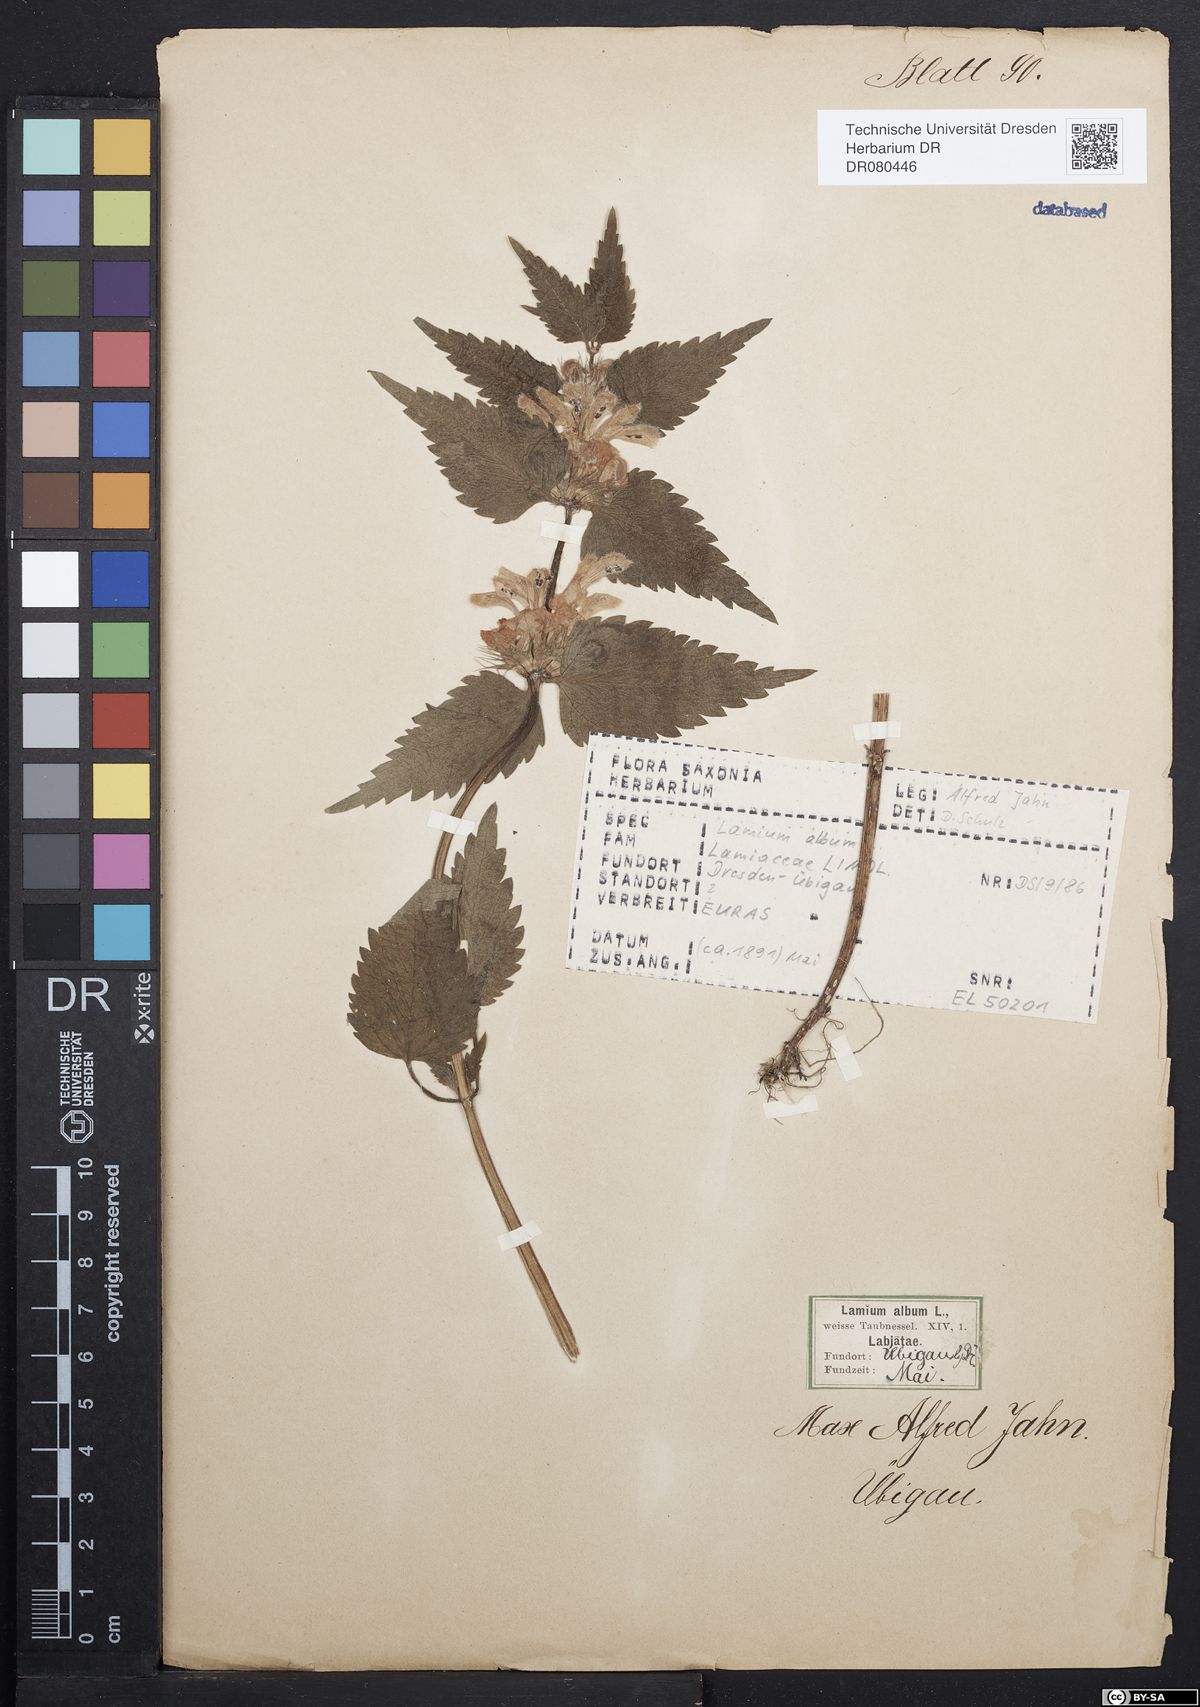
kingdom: Plantae
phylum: Tracheophyta
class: Magnoliopsida
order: Lamiales
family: Lamiaceae
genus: Lamium
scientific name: Lamium album
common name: White dead-nettle
